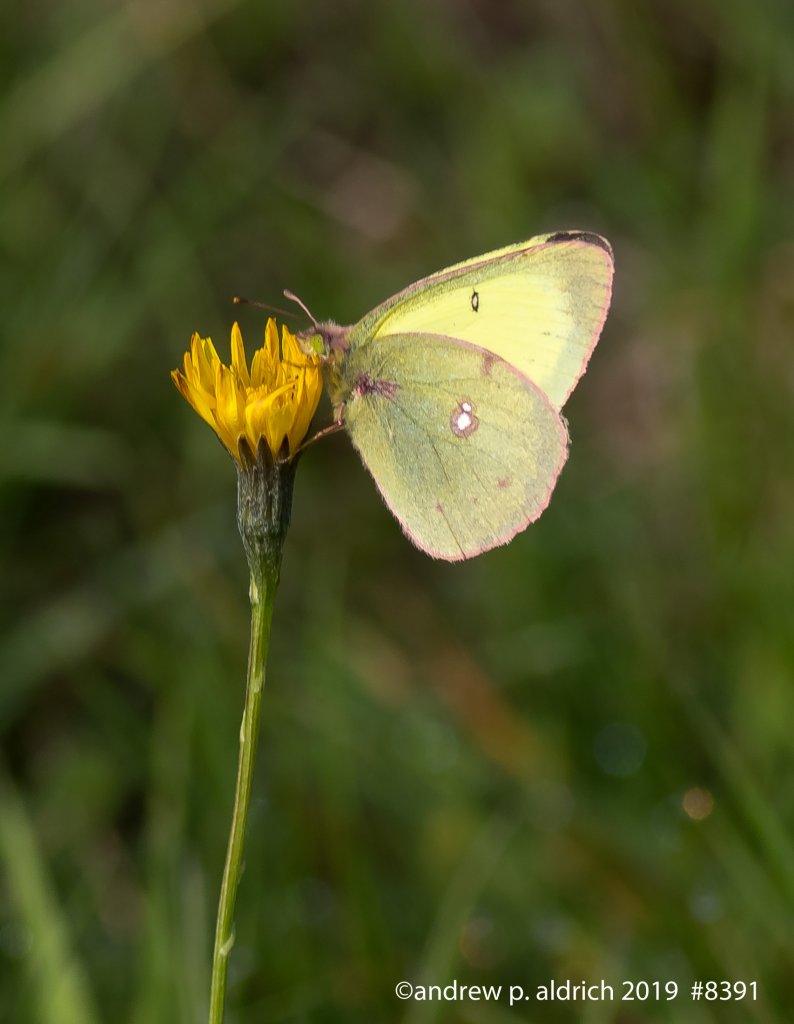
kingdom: Animalia
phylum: Arthropoda
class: Insecta
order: Lepidoptera
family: Pieridae
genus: Colias
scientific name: Colias
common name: Clouded Yellows
